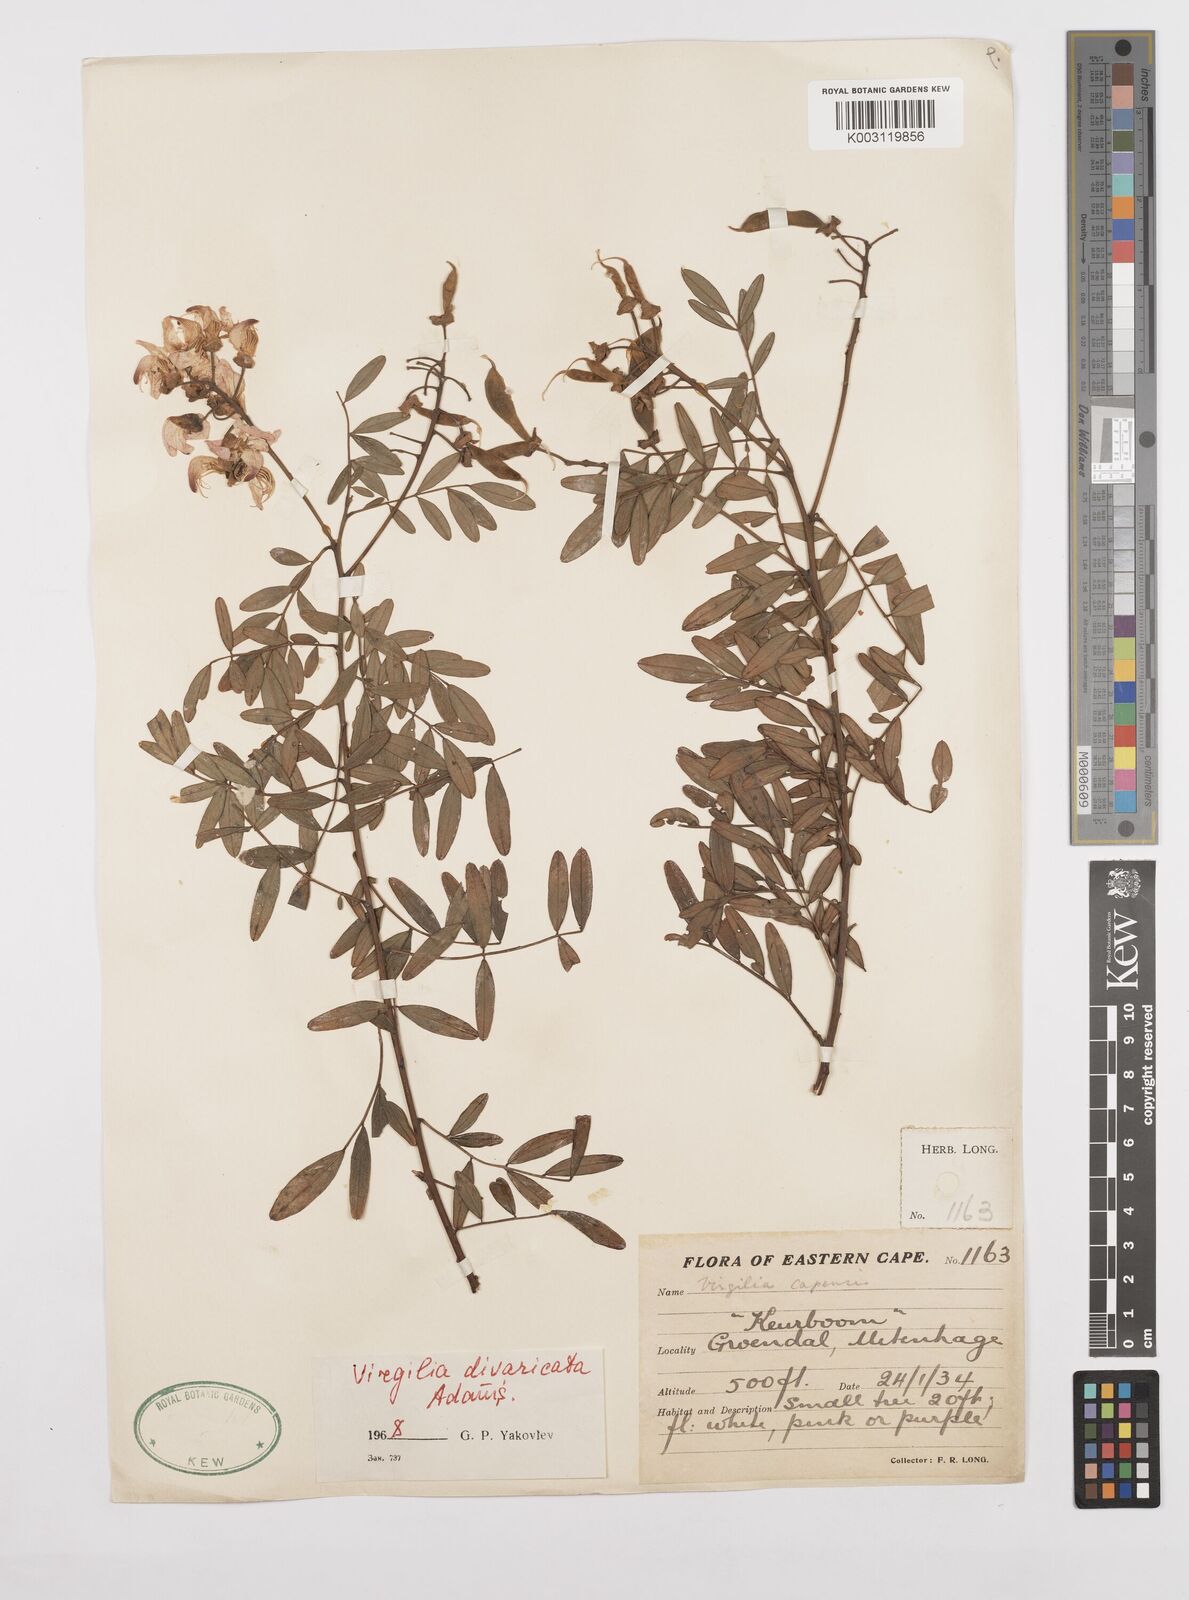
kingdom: Plantae
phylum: Tracheophyta
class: Magnoliopsida
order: Fabales
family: Fabaceae
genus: Virgilia
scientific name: Virgilia divaricata
